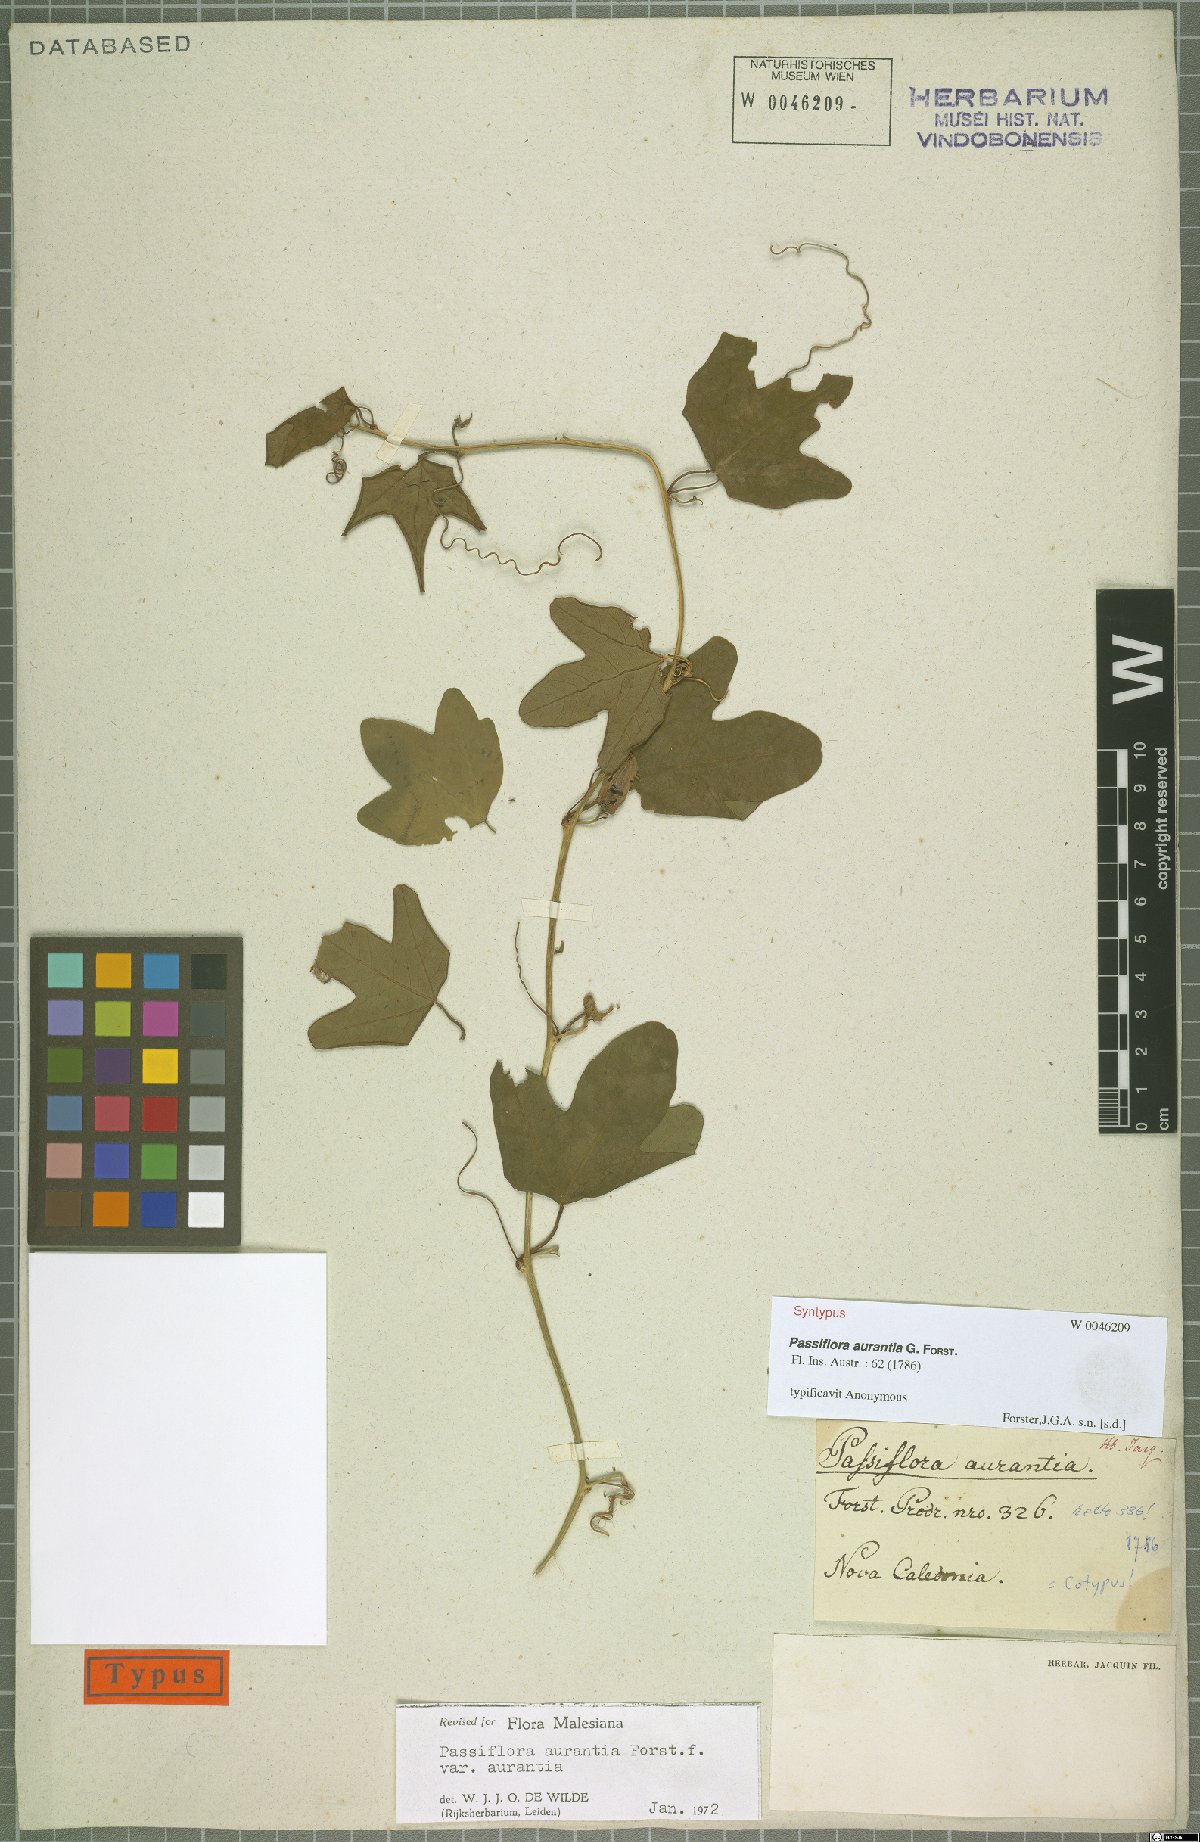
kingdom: Plantae
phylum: Tracheophyta
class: Magnoliopsida
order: Malpighiales
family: Passifloraceae
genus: Passiflora
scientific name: Passiflora aurantia
